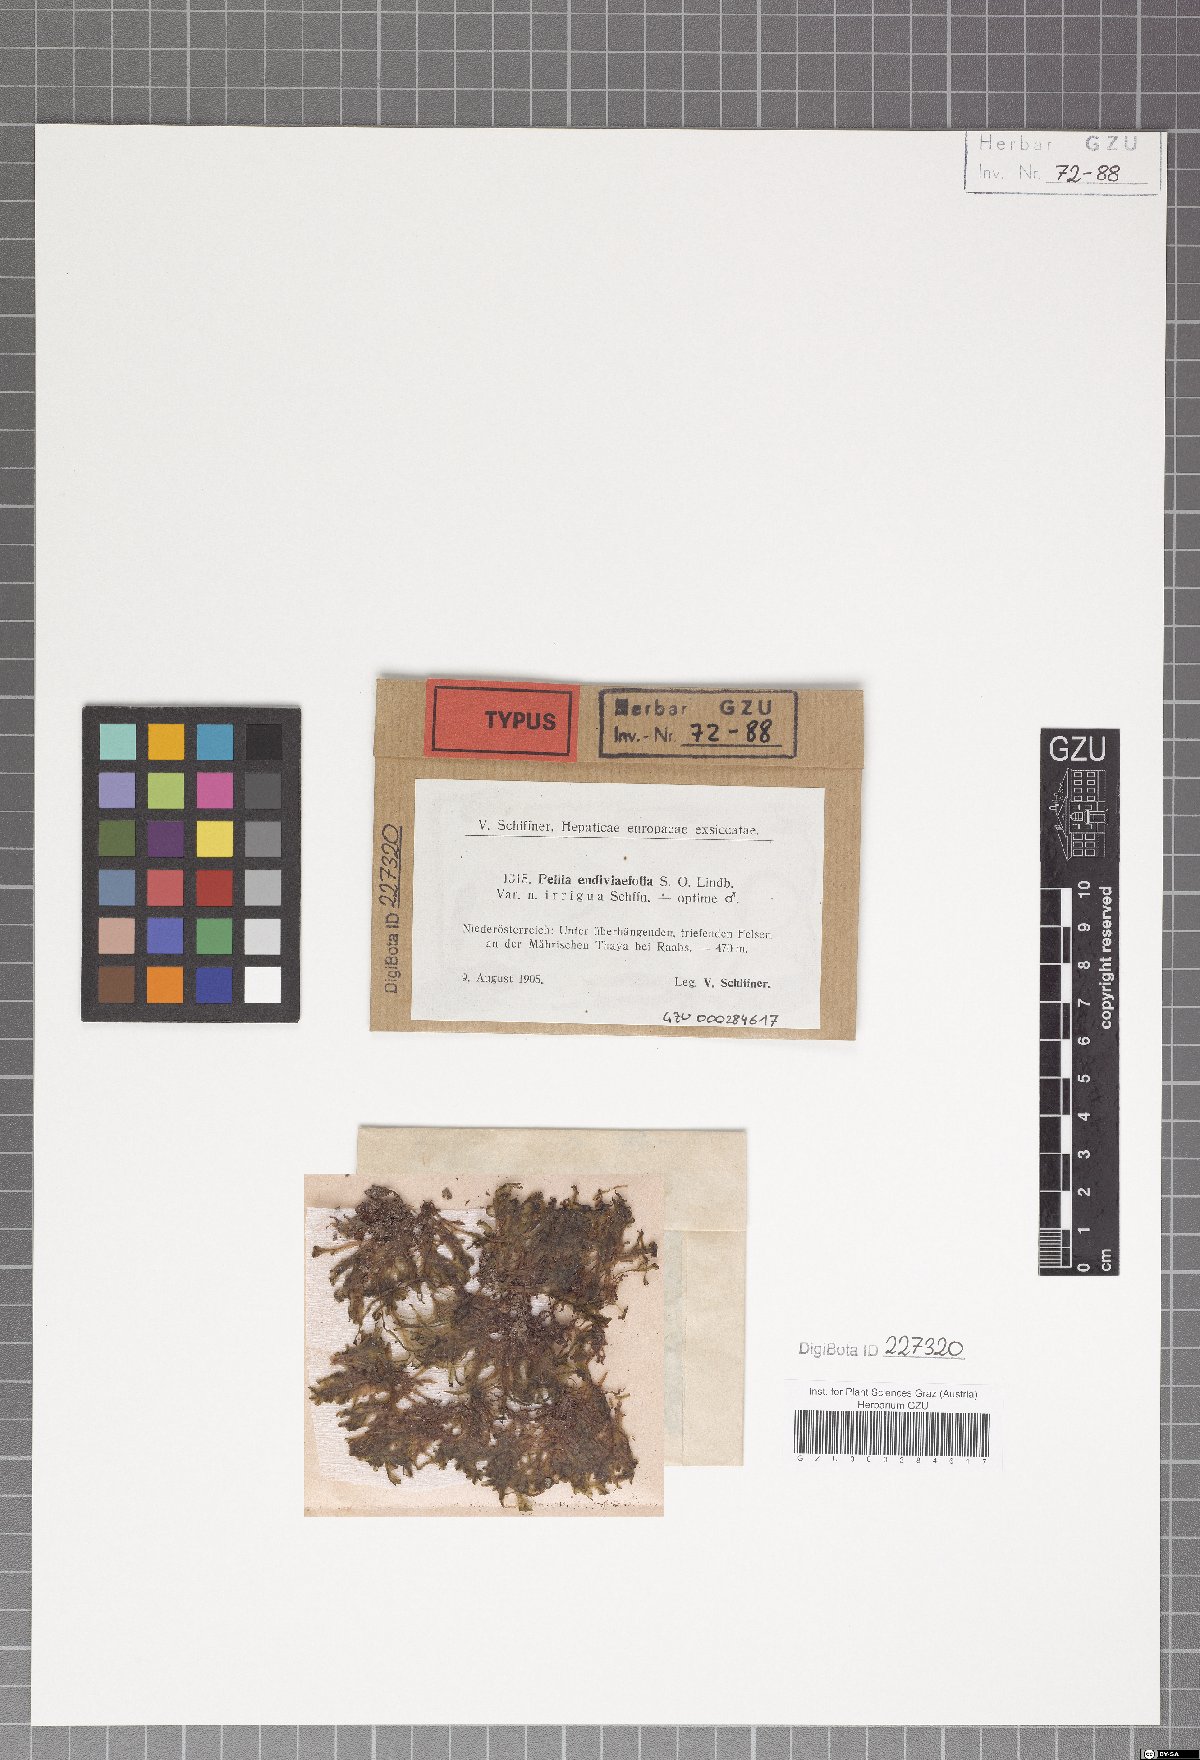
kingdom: Plantae
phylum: Marchantiophyta
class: Jungermanniopsida
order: Pelliales
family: Pelliaceae
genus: Apopellia
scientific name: Apopellia endiviifolia
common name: Endive pellia
